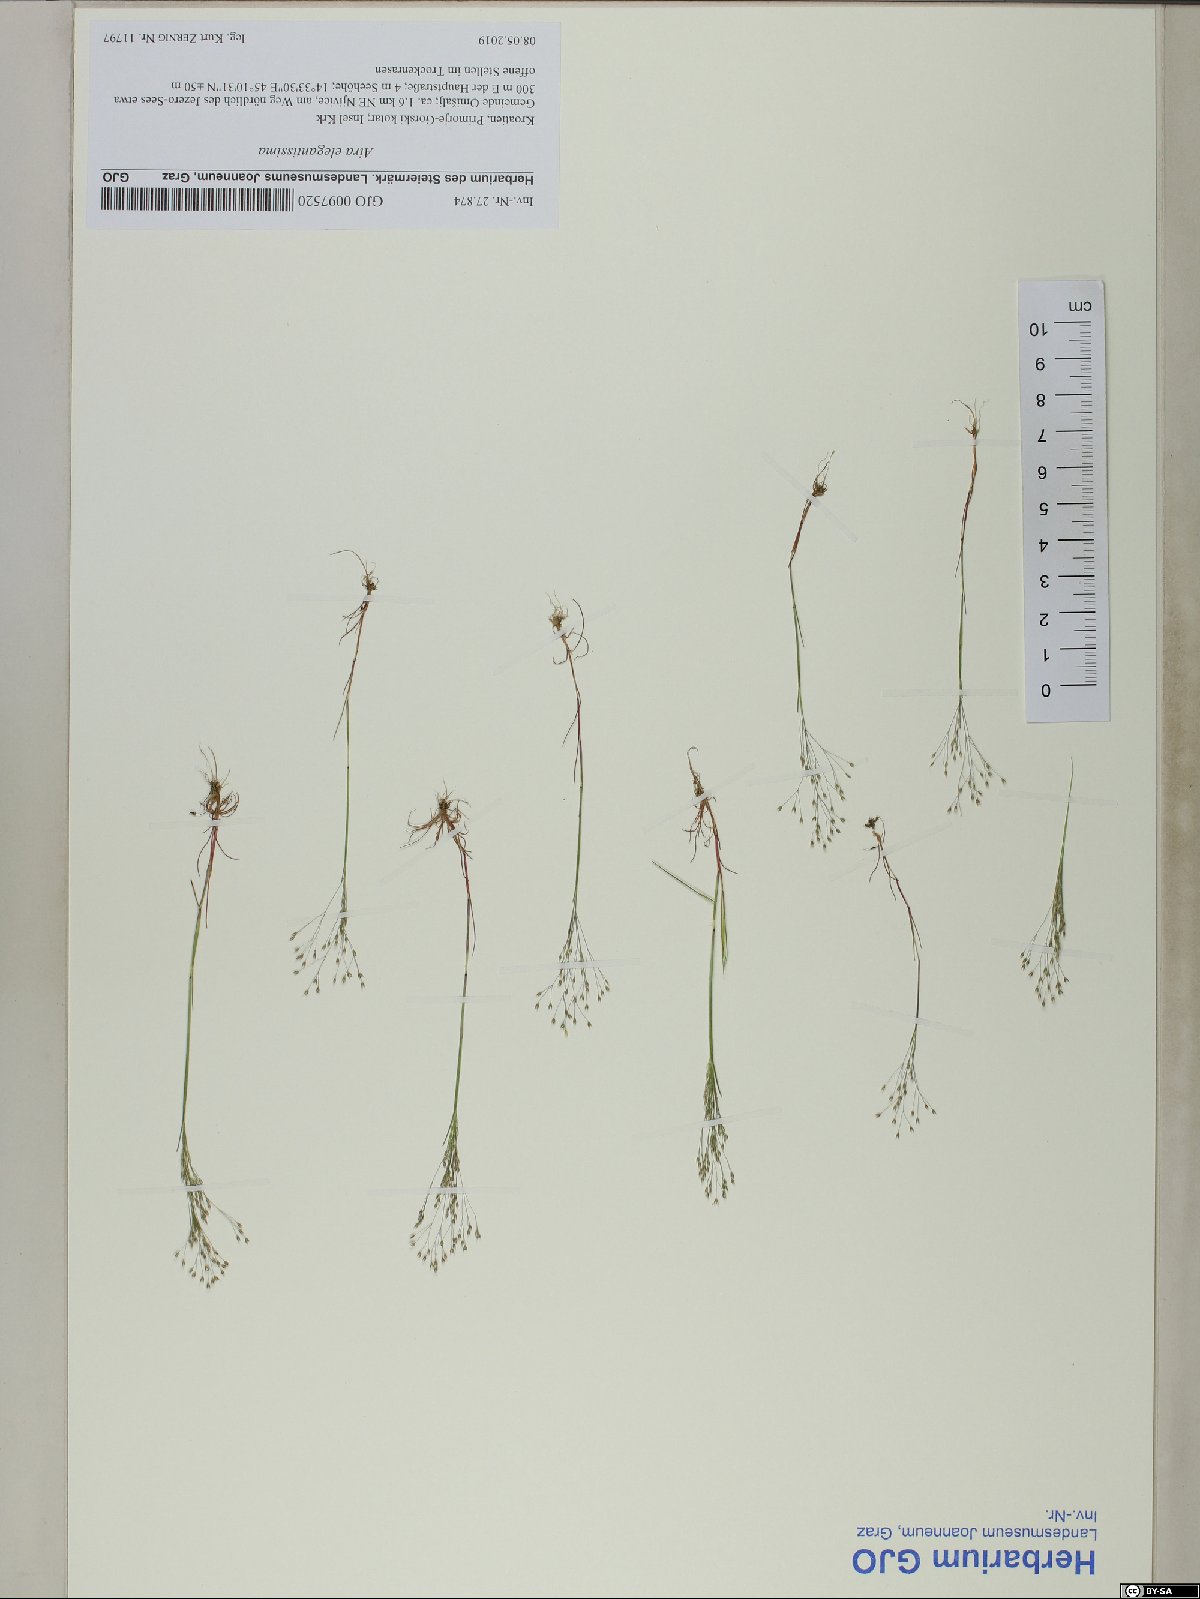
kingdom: Plantae
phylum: Tracheophyta
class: Liliopsida
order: Poales
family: Poaceae
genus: Aira
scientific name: Aira elegans
